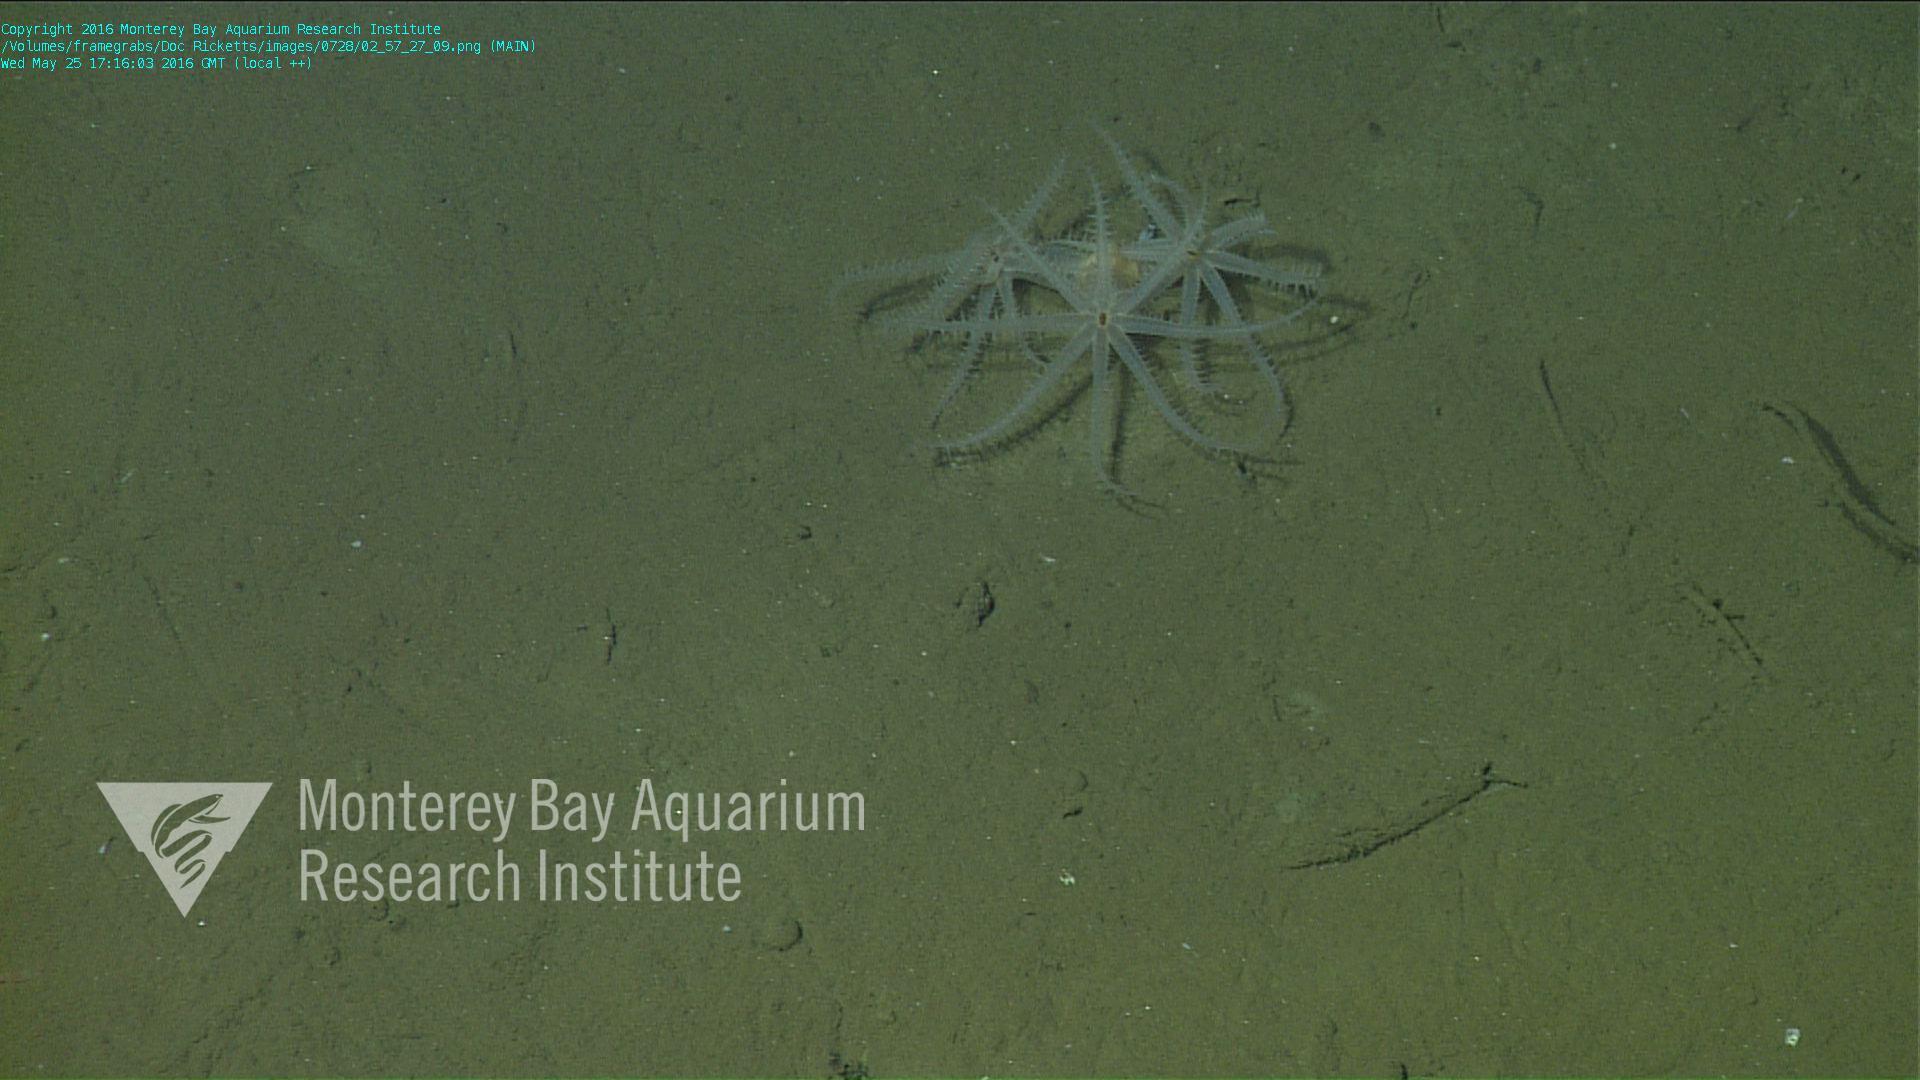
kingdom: Animalia
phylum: Cnidaria
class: Anthozoa
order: Scleralcyonacea
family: Coralliidae
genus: Bathyalcyon
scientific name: Bathyalcyon robustum
